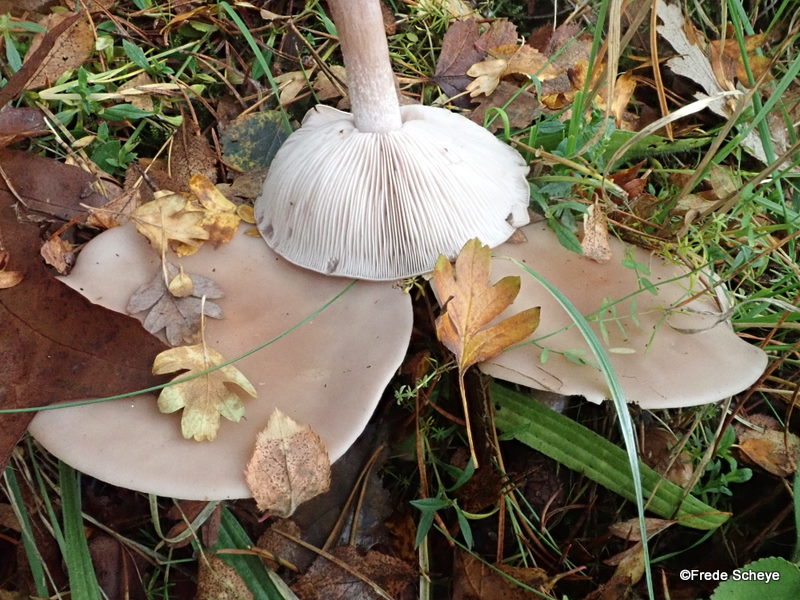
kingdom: Fungi
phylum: Basidiomycota
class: Agaricomycetes
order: Agaricales
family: Tricholomataceae
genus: Lepista
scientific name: Lepista sordida
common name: spinkel hekseringshat
